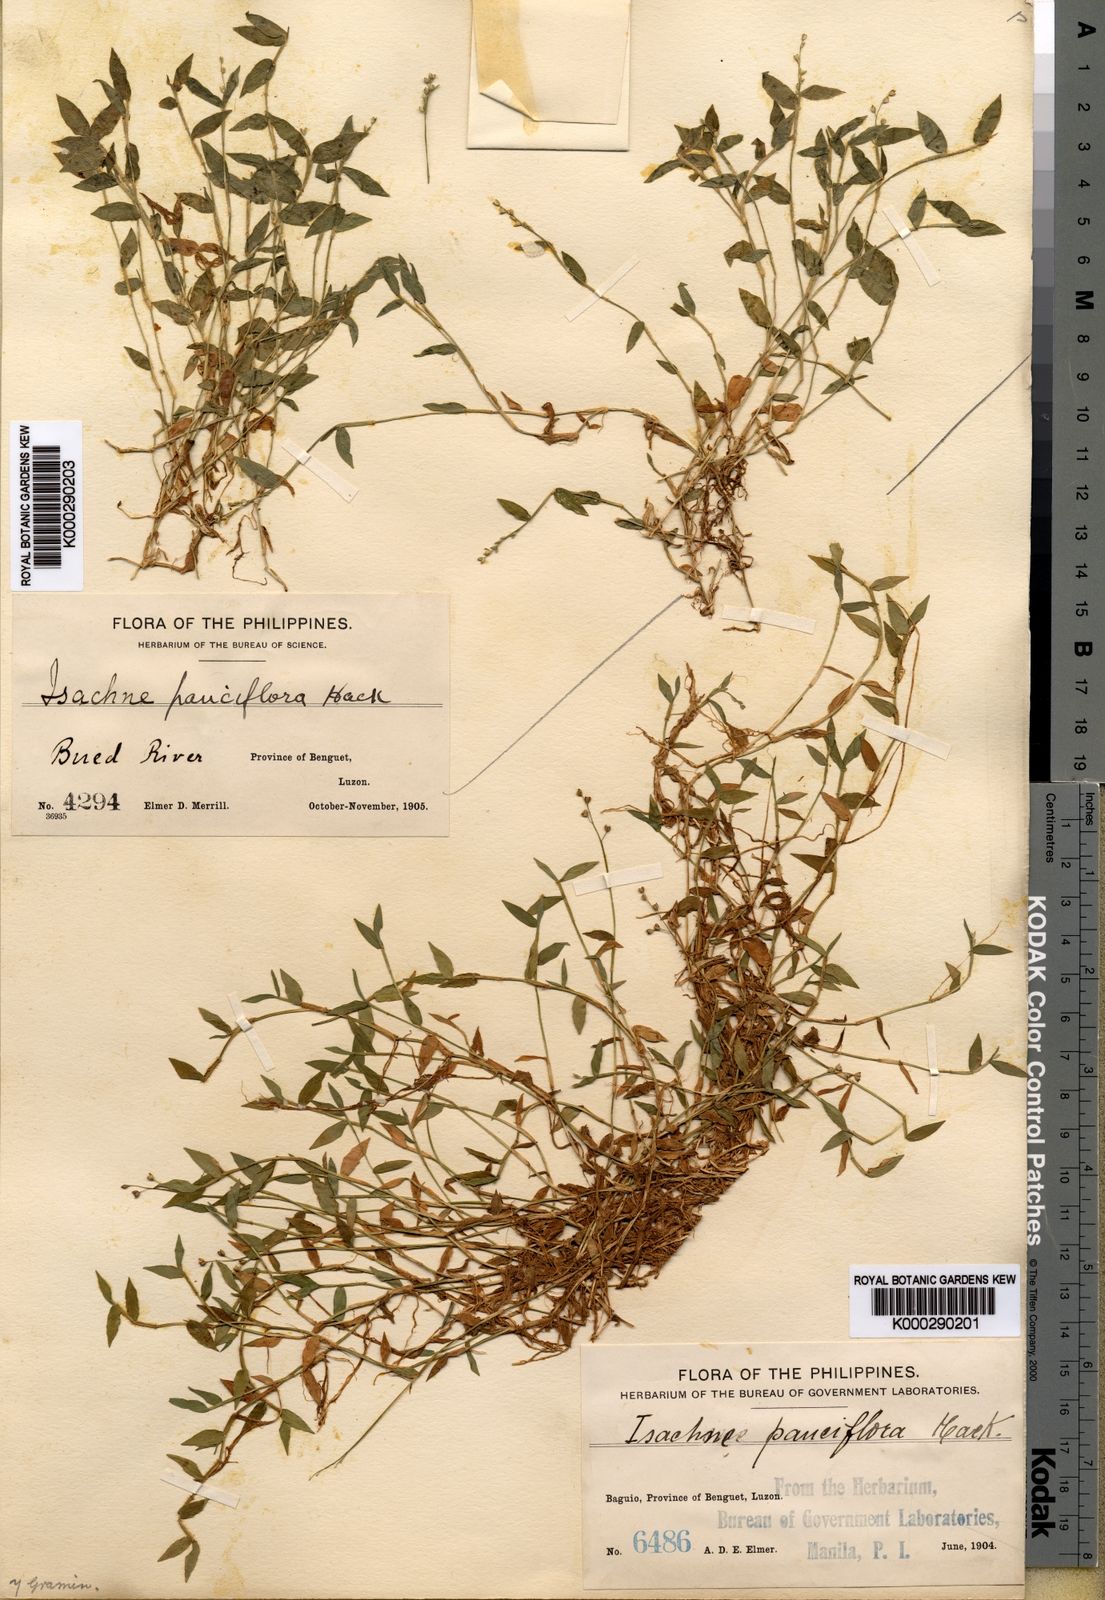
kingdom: Plantae
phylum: Tracheophyta
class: Liliopsida
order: Poales
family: Poaceae
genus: Isachne
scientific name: Isachne myosotis
